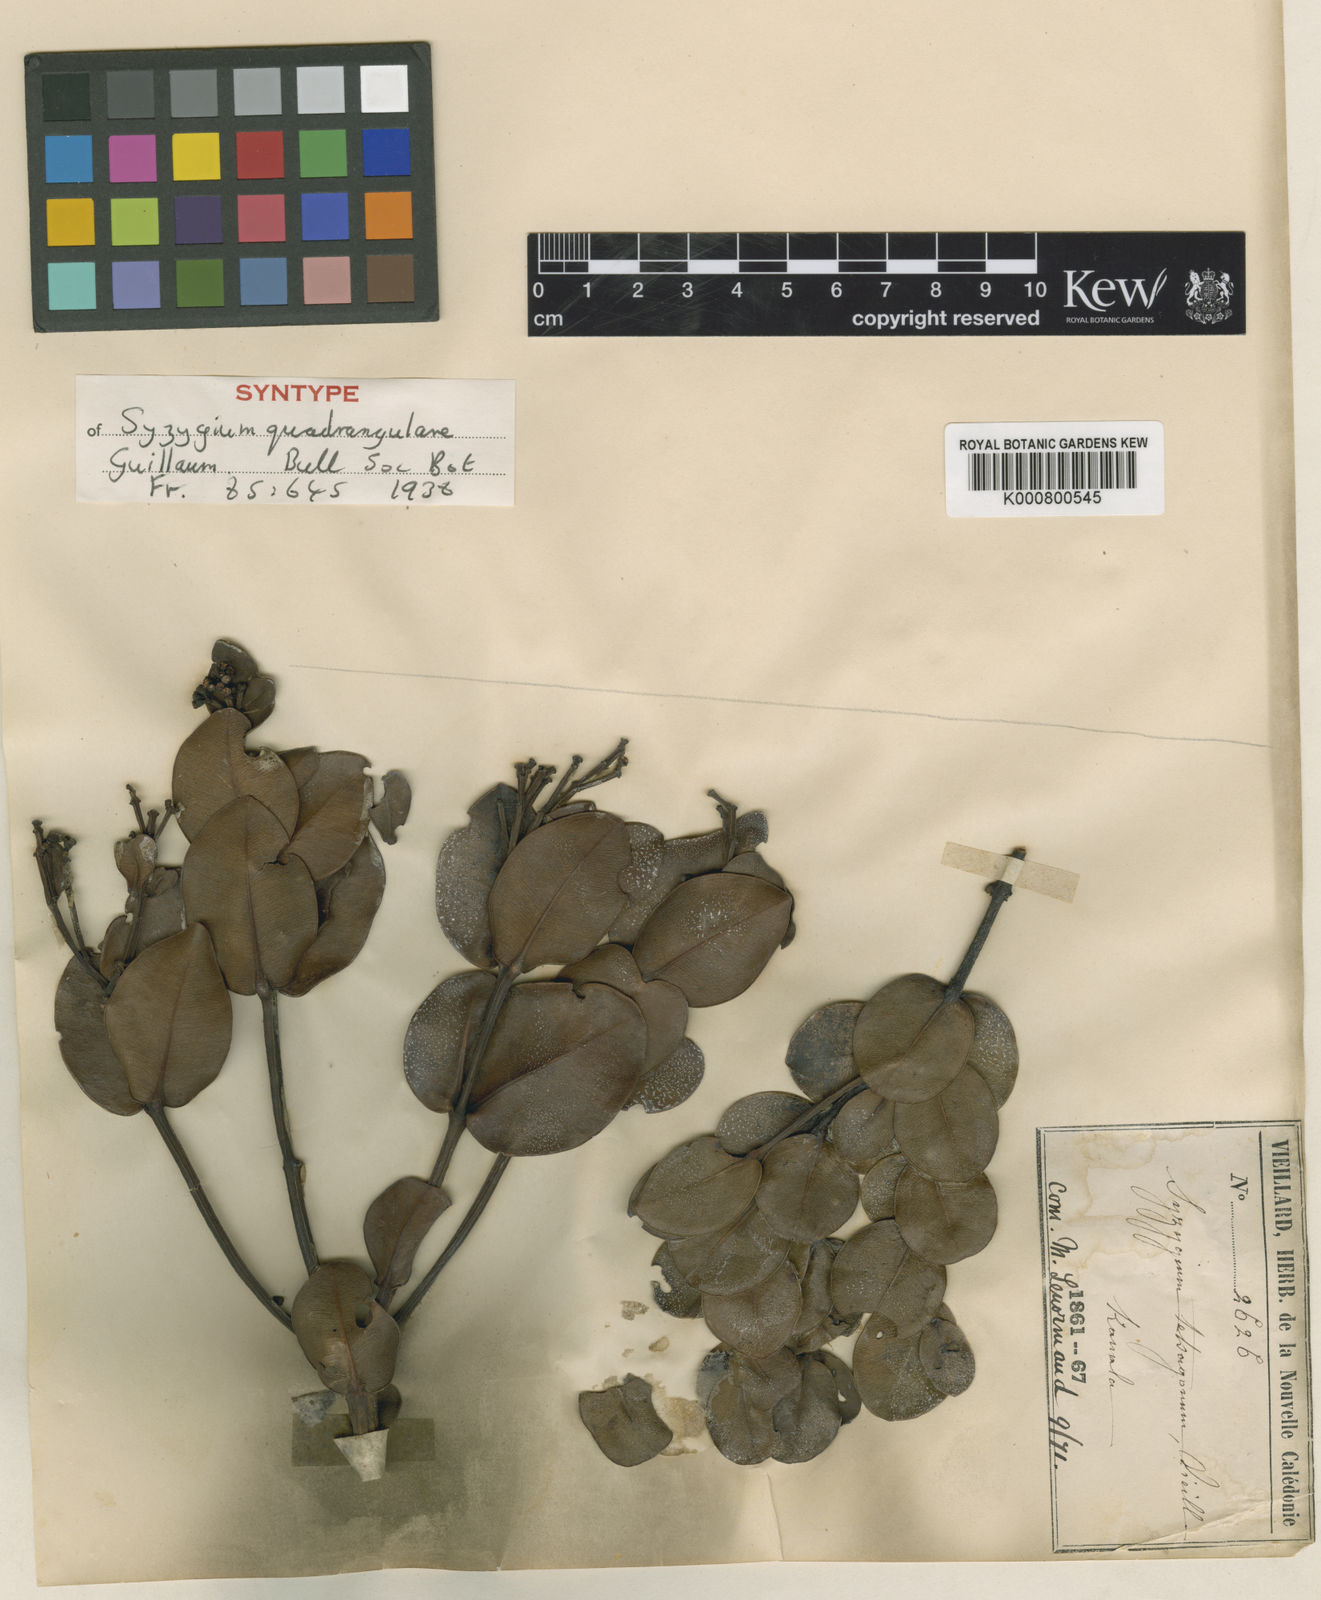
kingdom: Plantae
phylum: Tracheophyta
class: Magnoliopsida
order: Myrtales
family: Myrtaceae
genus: Syzygium
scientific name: Syzygium quadrangulare
